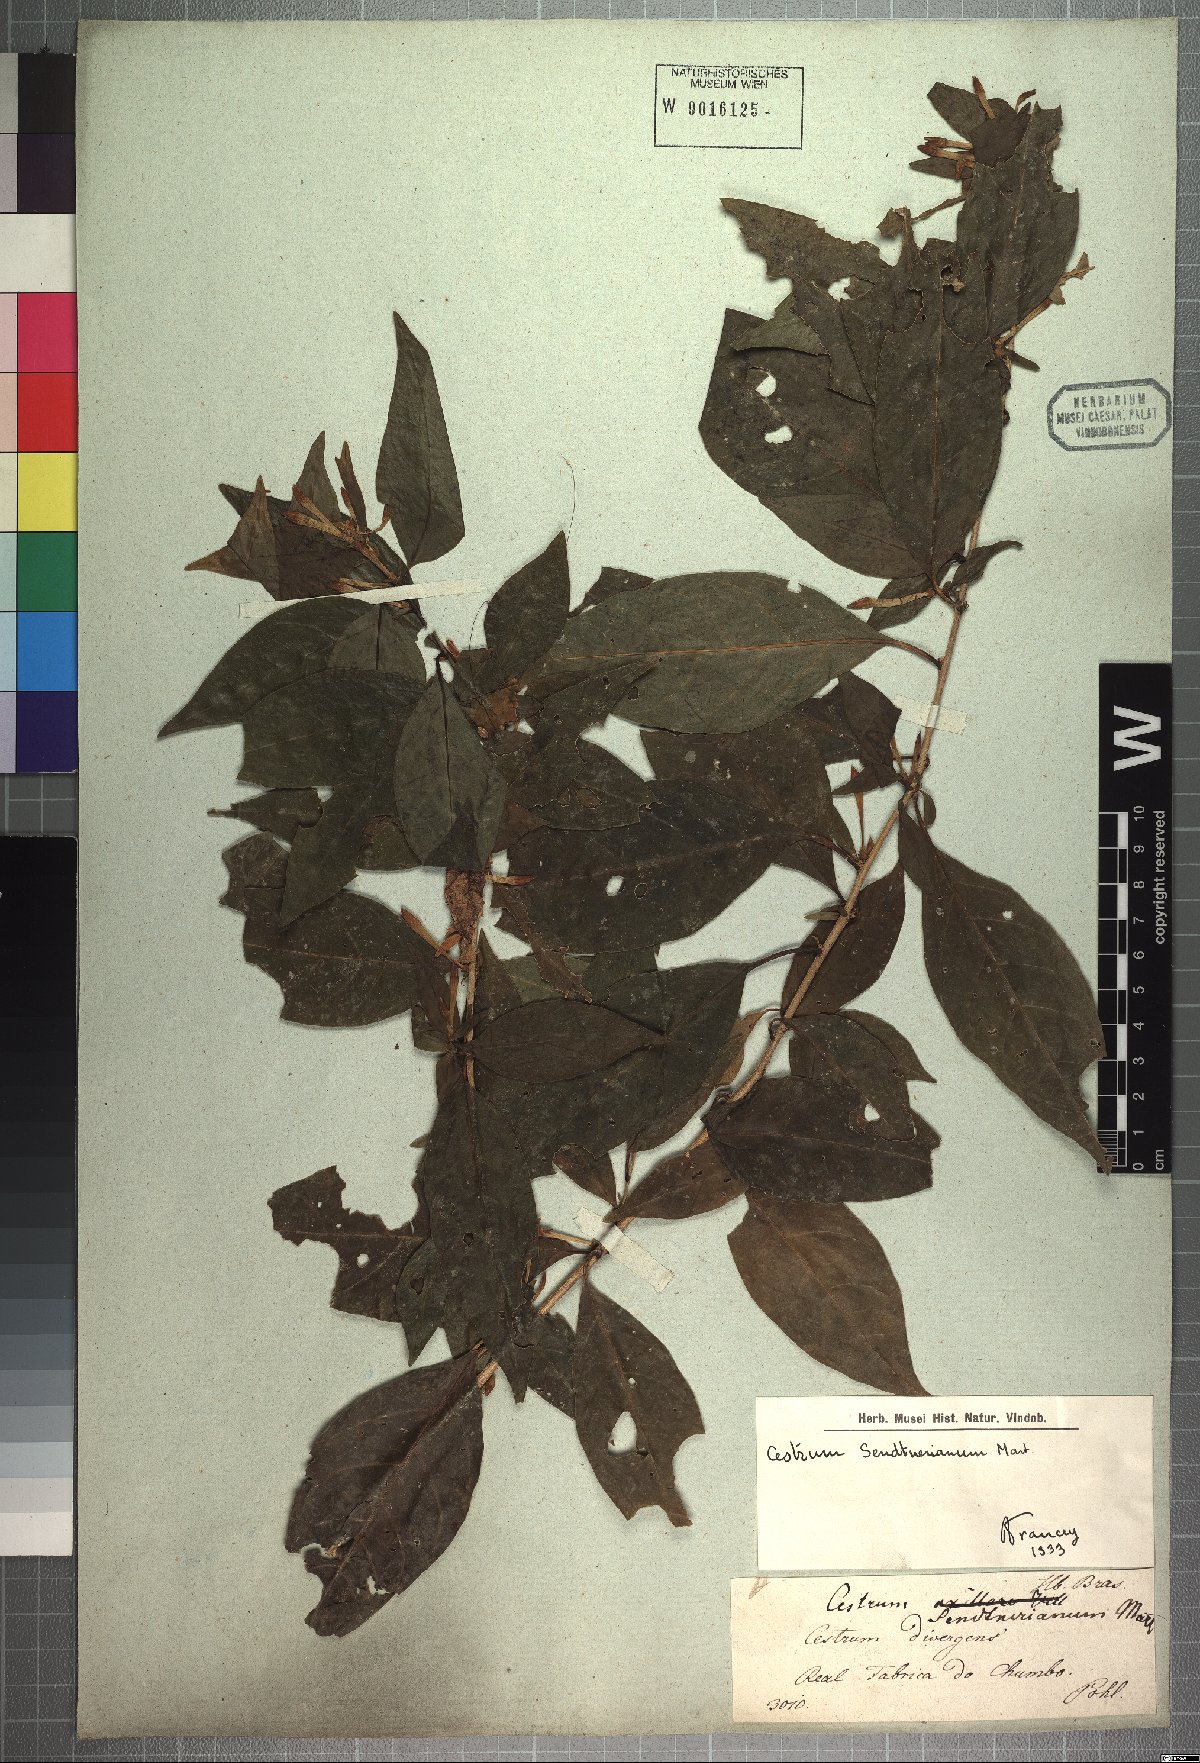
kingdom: Plantae
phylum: Tracheophyta
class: Magnoliopsida
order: Solanales
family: Solanaceae
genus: Cestrum
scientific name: Cestrum mariquitense
